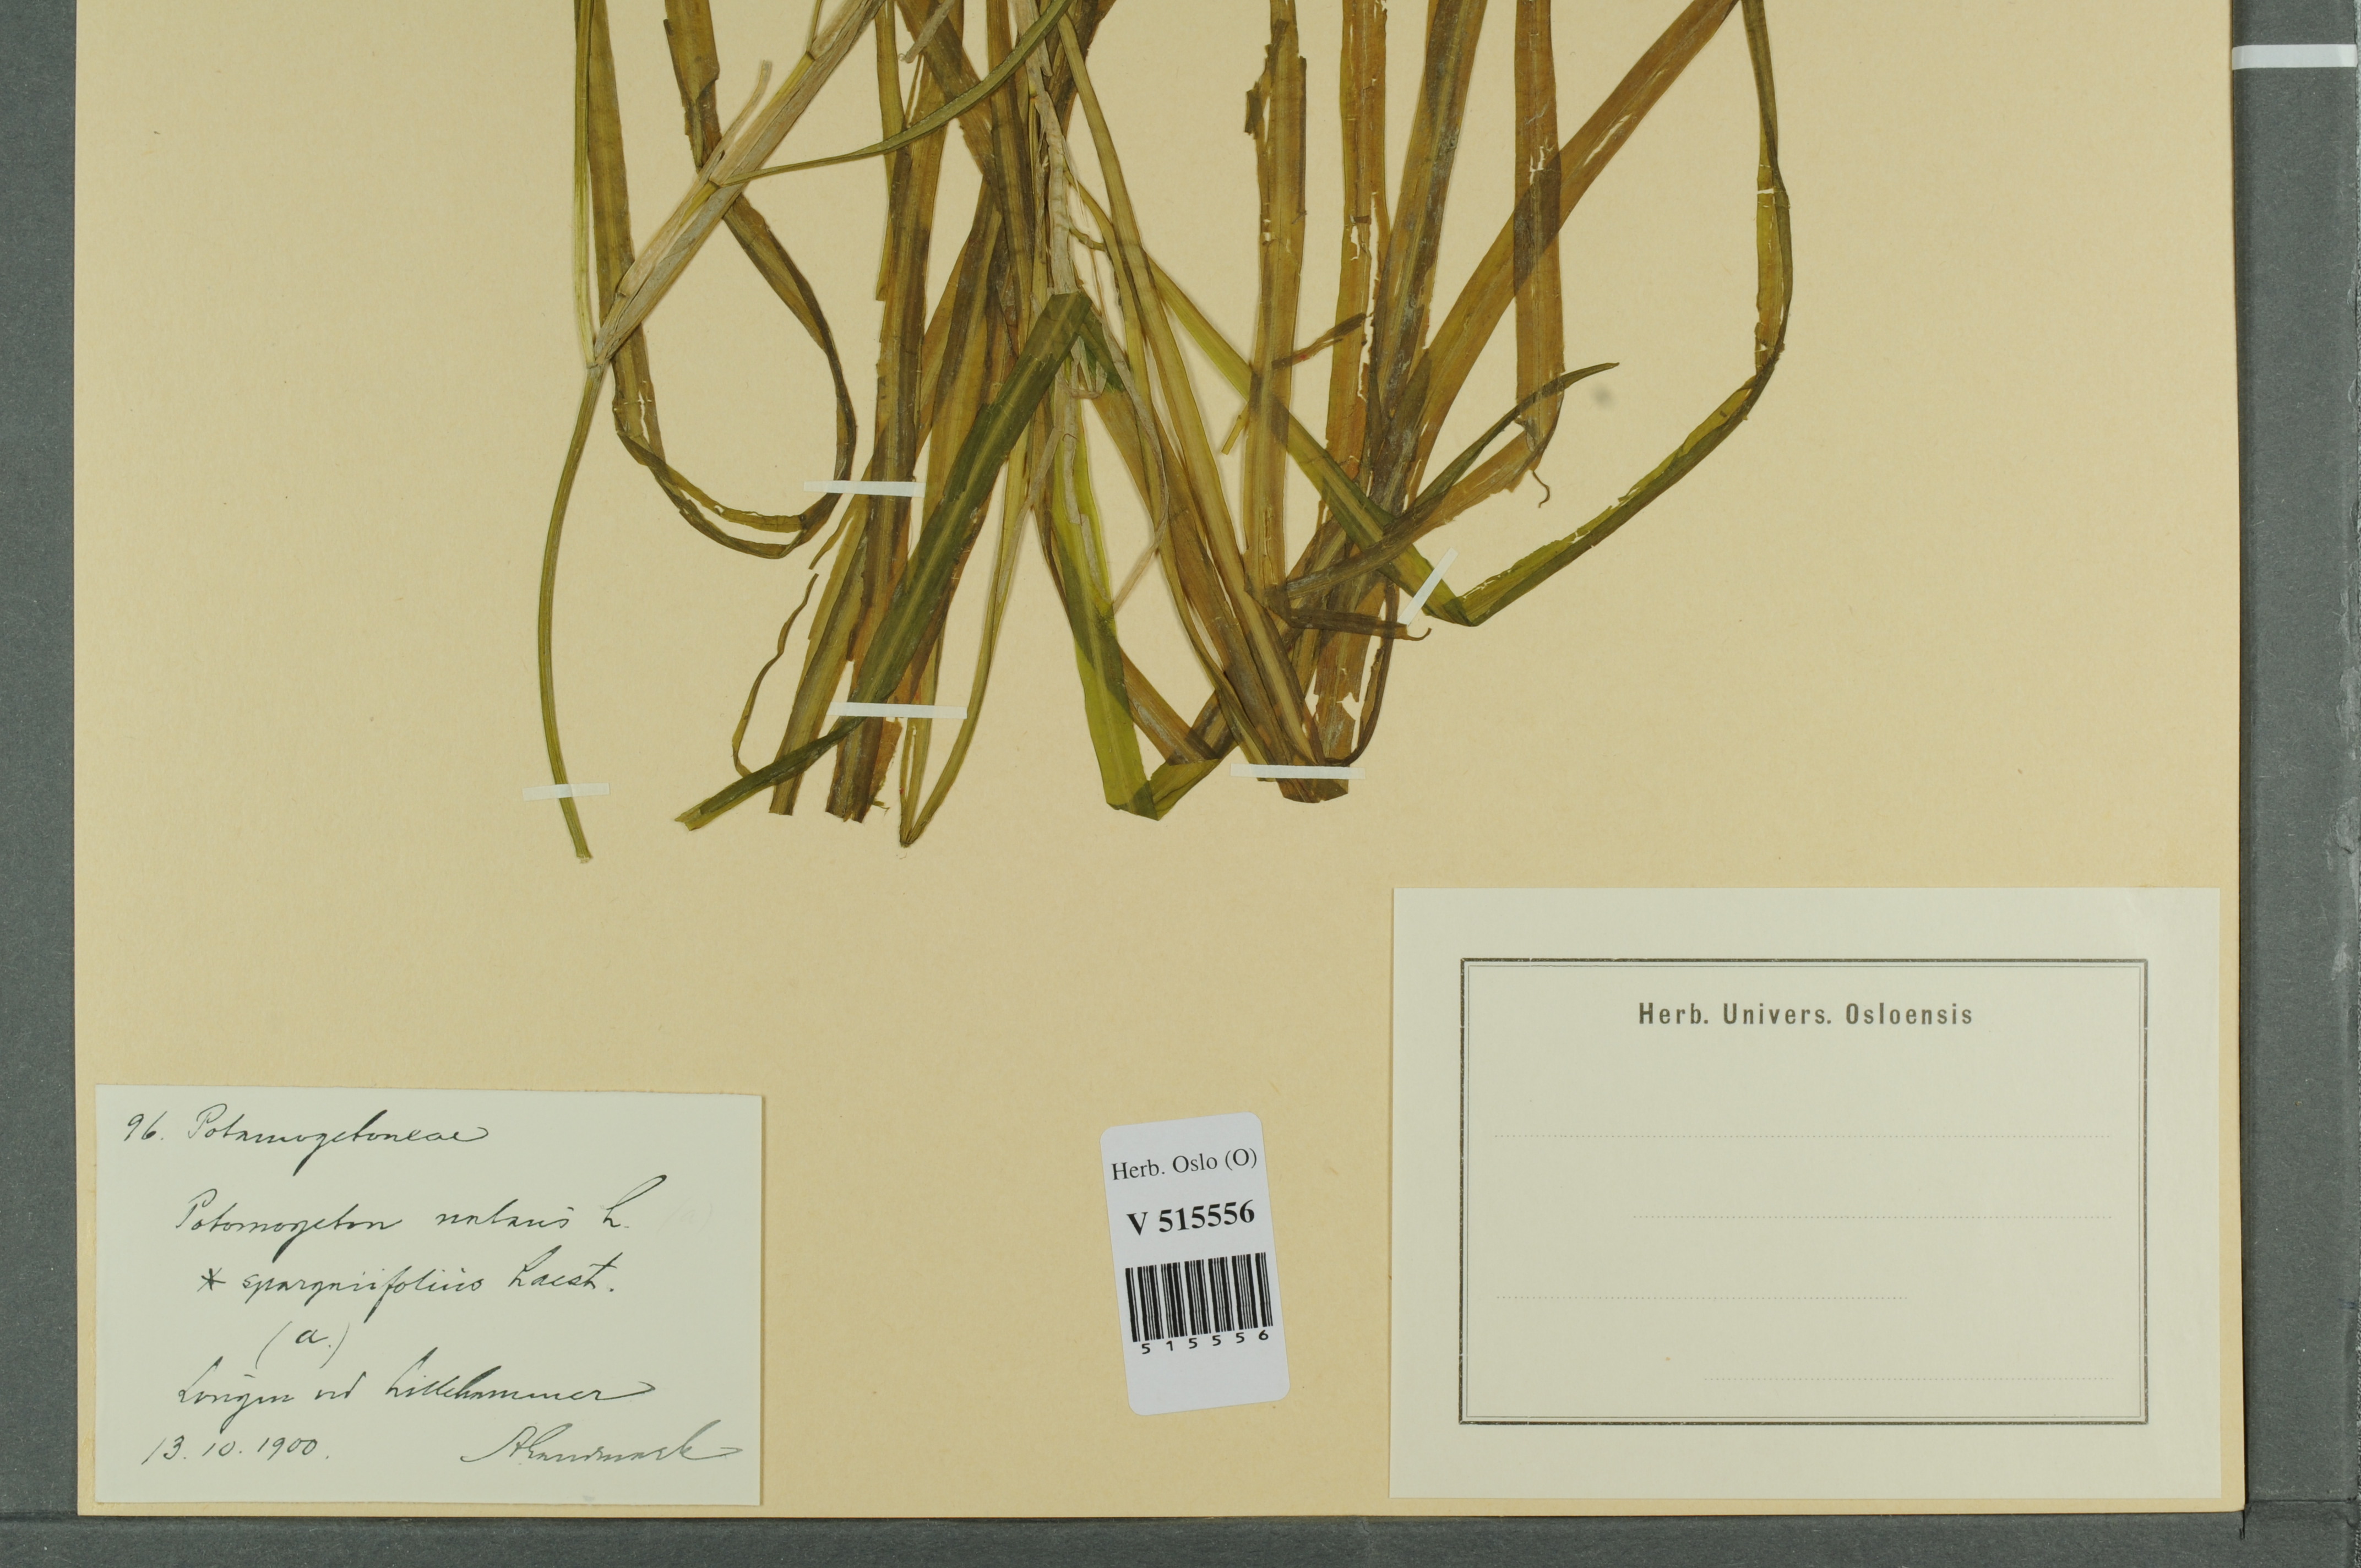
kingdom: Plantae
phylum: Tracheophyta
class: Liliopsida
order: Alismatales
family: Potamogetonaceae
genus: Potamogeton
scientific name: Potamogeton sparganiifolius
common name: Burreed-like pondweed
